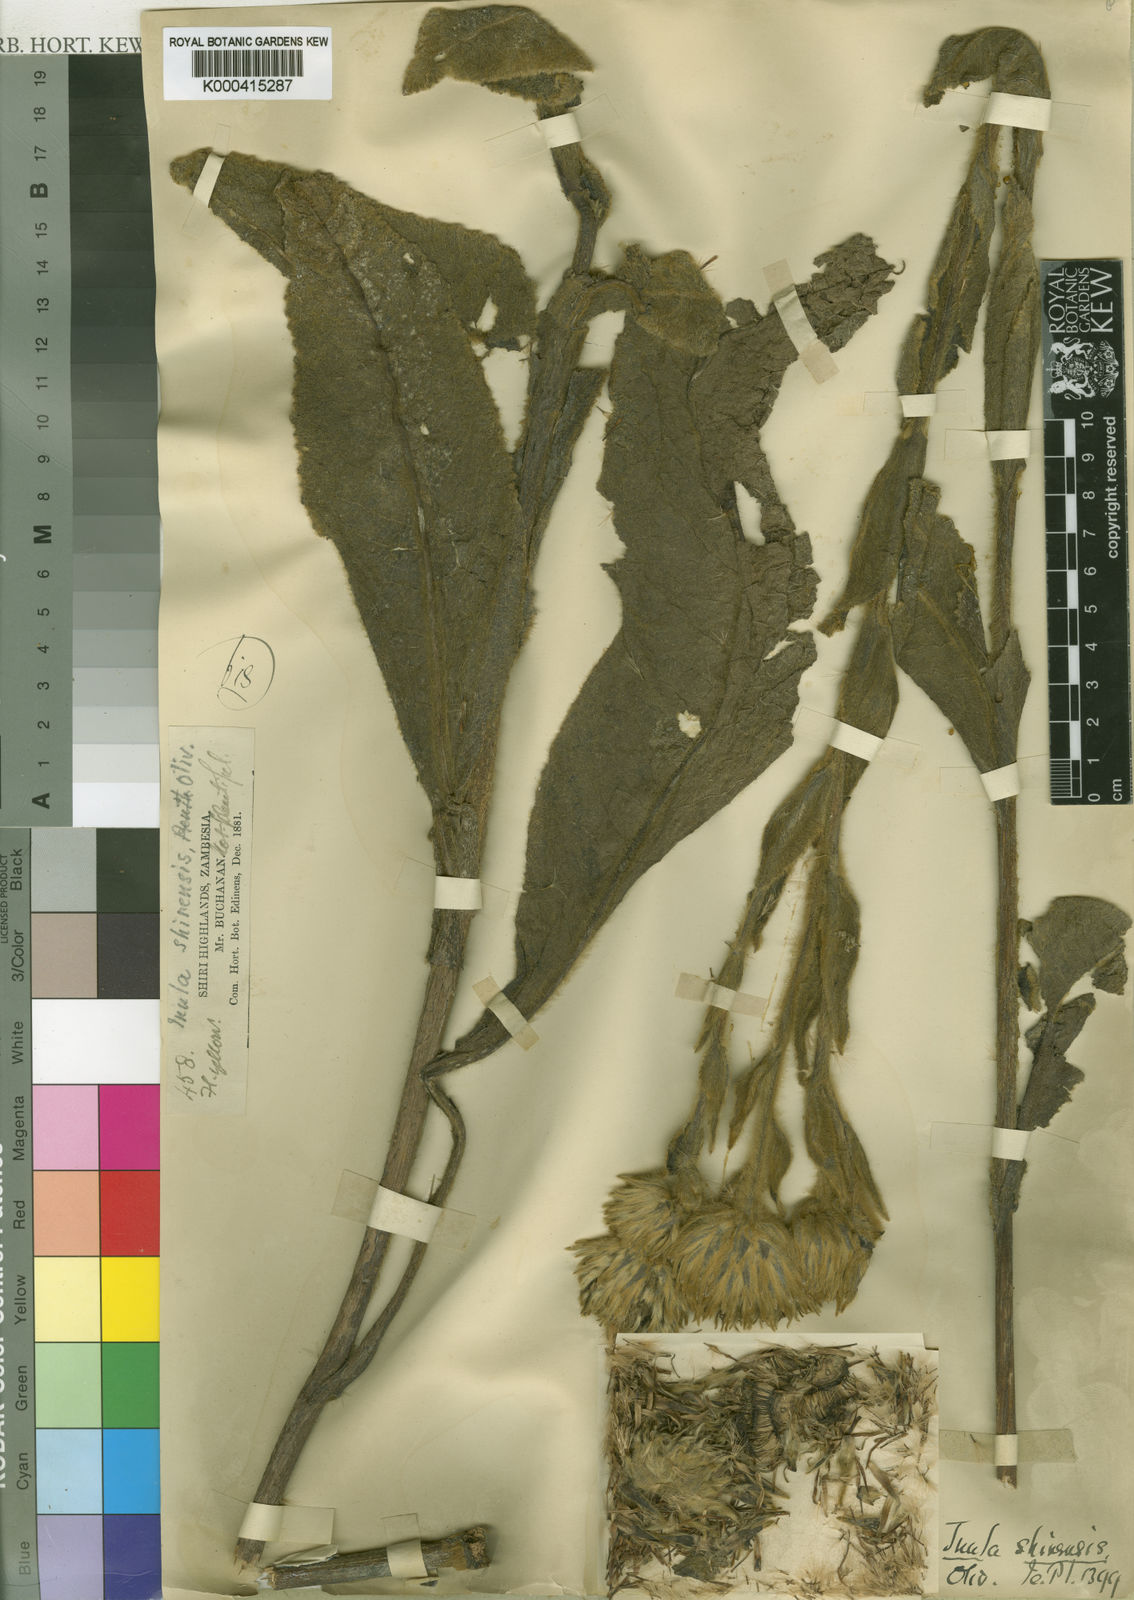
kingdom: Plantae
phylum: Tracheophyta
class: Magnoliopsida
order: Asterales
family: Asteraceae
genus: Monactinocephalus
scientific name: Monactinocephalus shirensis
